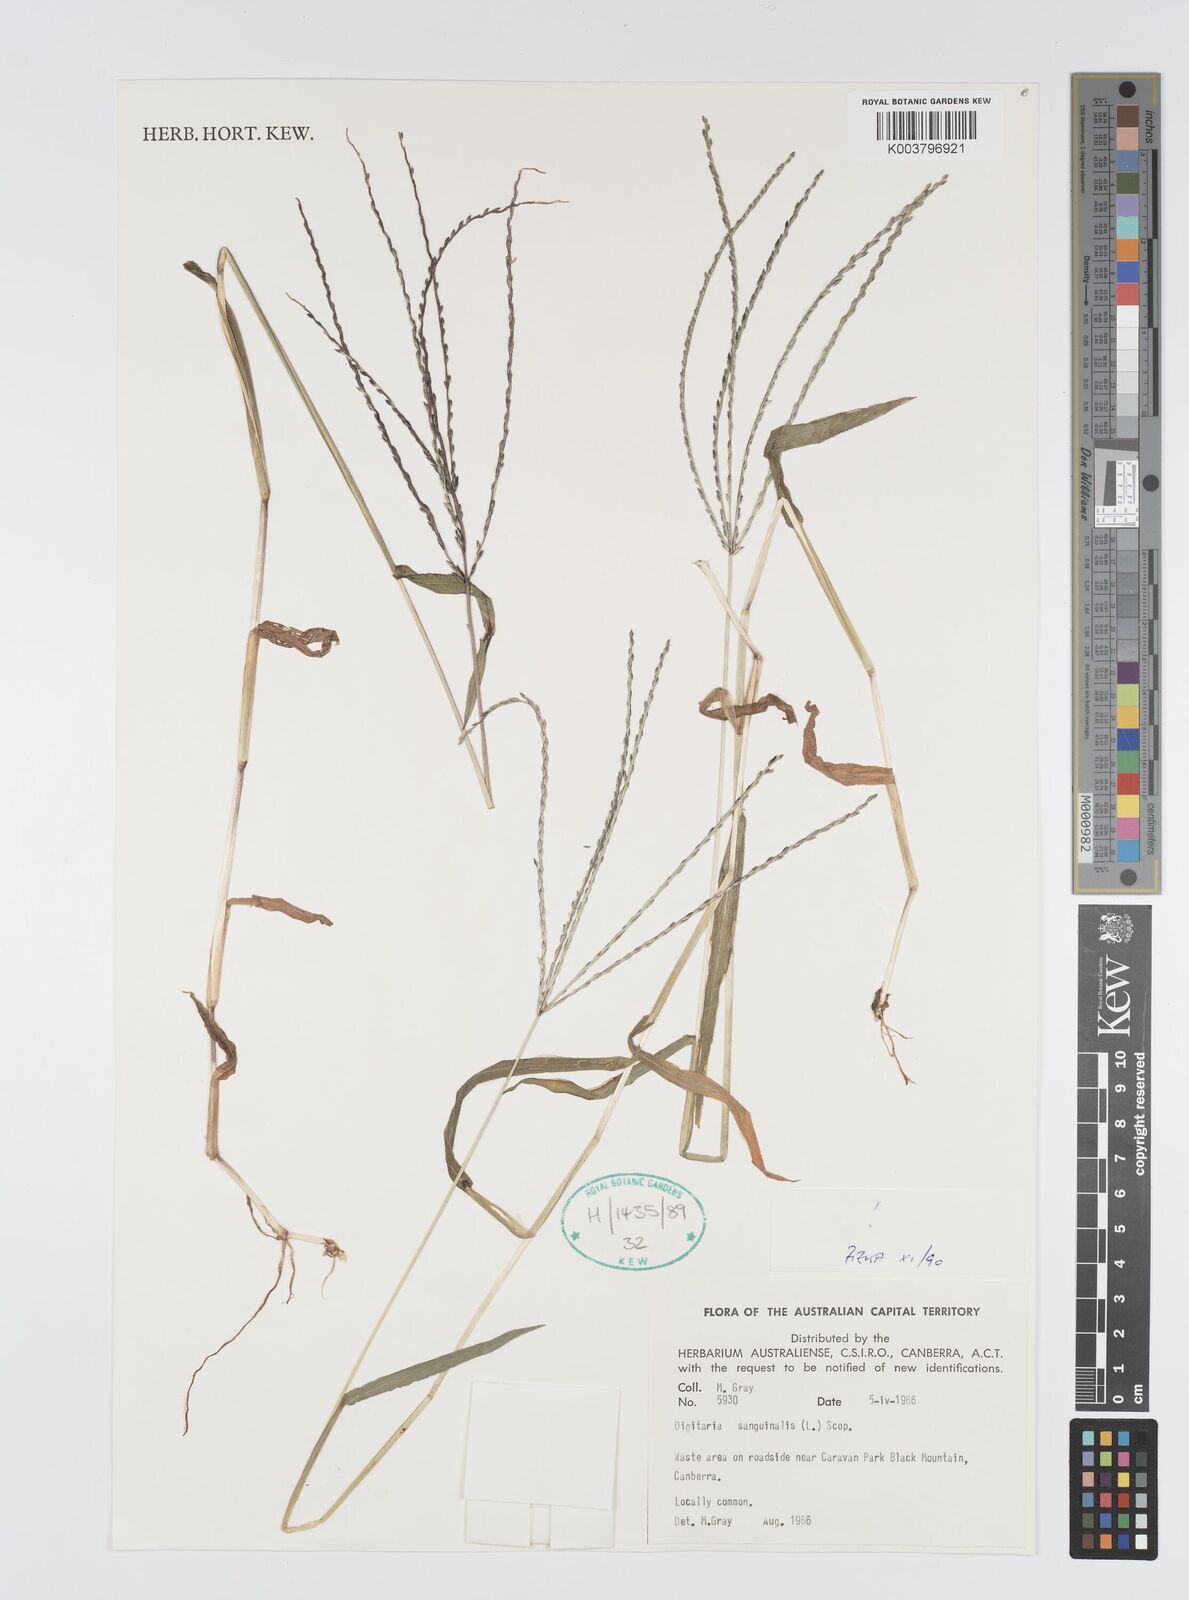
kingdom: Plantae
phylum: Tracheophyta
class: Liliopsida
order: Poales
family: Poaceae
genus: Digitaria
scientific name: Digitaria sanguinalis
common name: Hairy crabgrass
